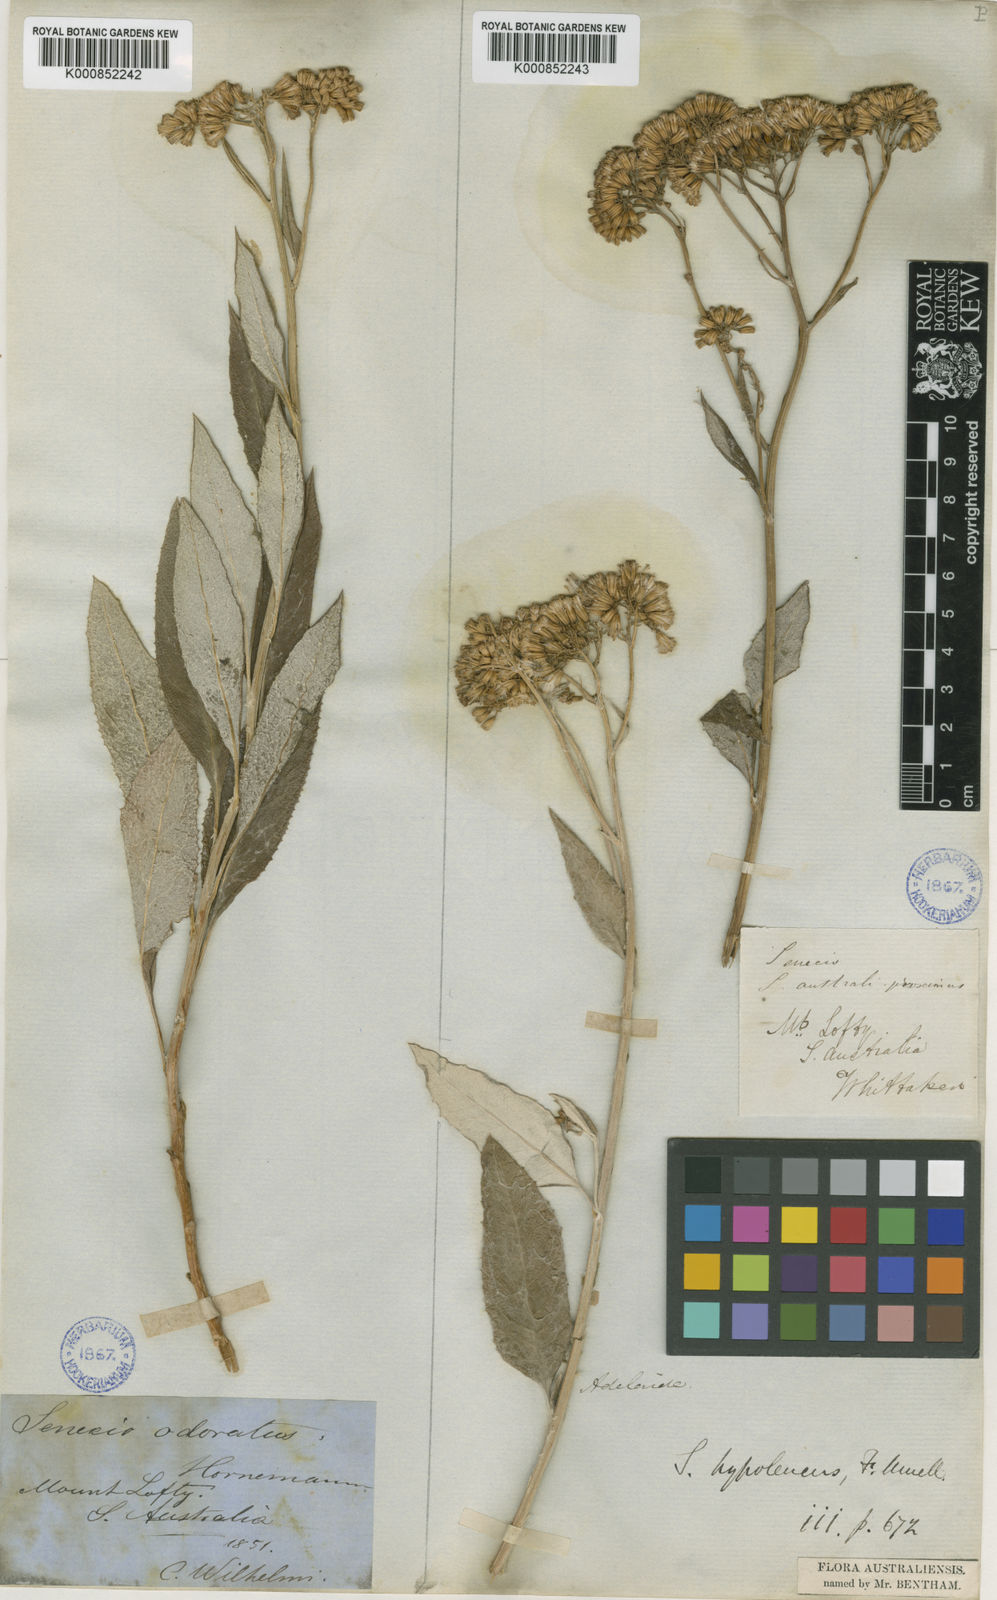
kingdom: Plantae
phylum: Tracheophyta
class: Magnoliopsida
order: Asterales
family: Asteraceae
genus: Senecio
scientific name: Senecio hypoleucus
